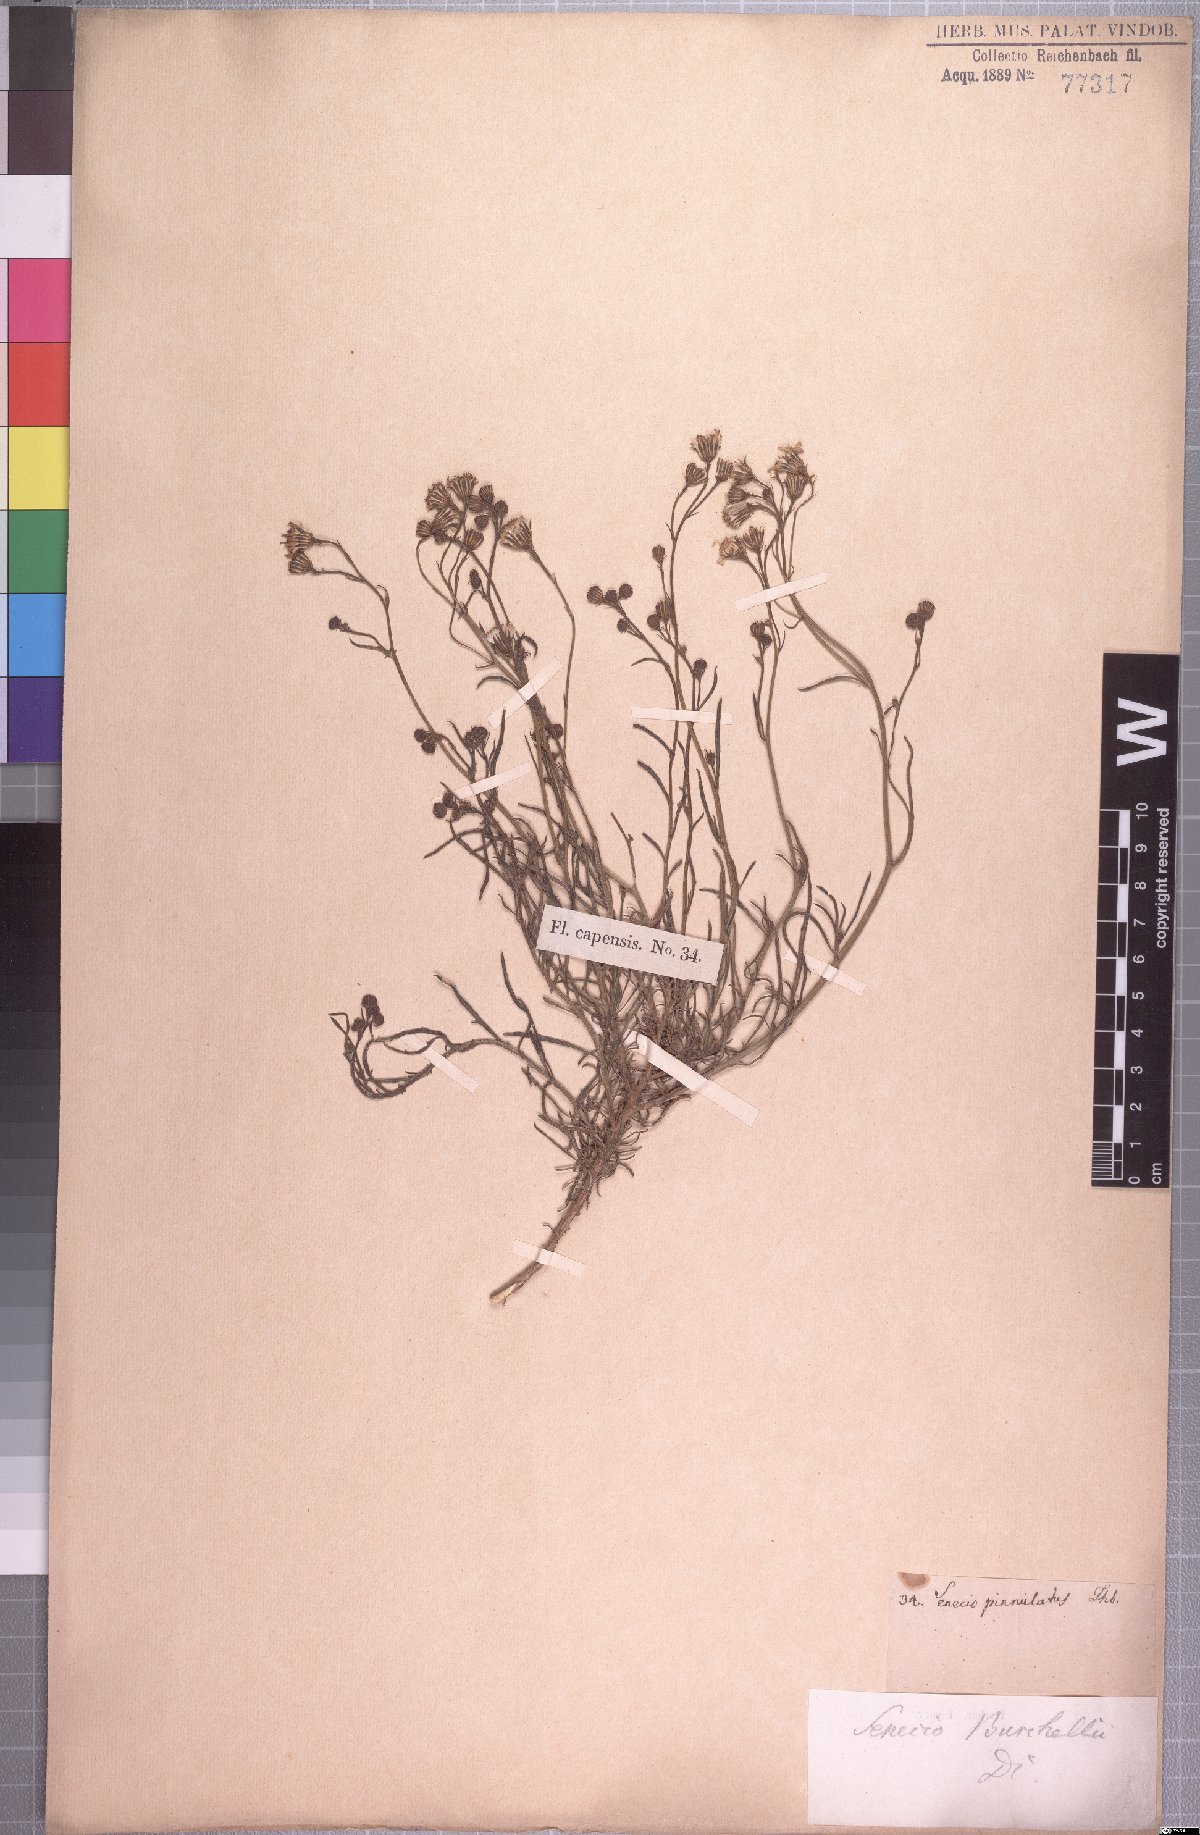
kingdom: Plantae
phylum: Tracheophyta
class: Magnoliopsida
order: Asterales
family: Asteraceae
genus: Senecio
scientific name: Senecio burchellii
